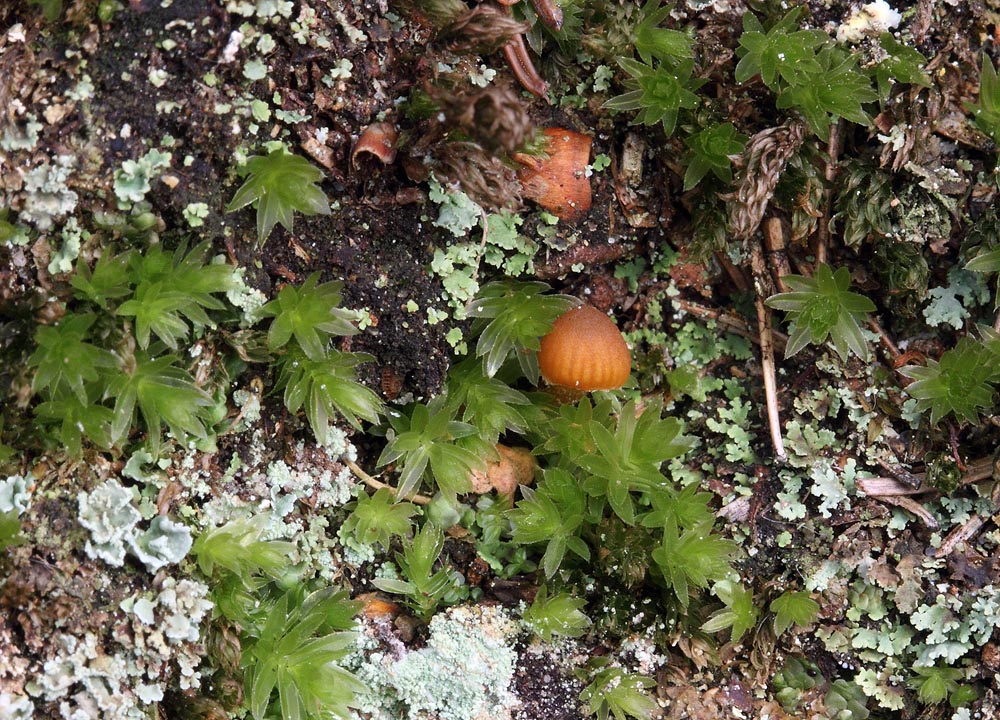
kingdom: Fungi
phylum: Basidiomycota
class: Agaricomycetes
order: Agaricales
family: Hymenogastraceae
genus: Galerina
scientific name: Galerina hypnorum
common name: mos-hjelmhat
